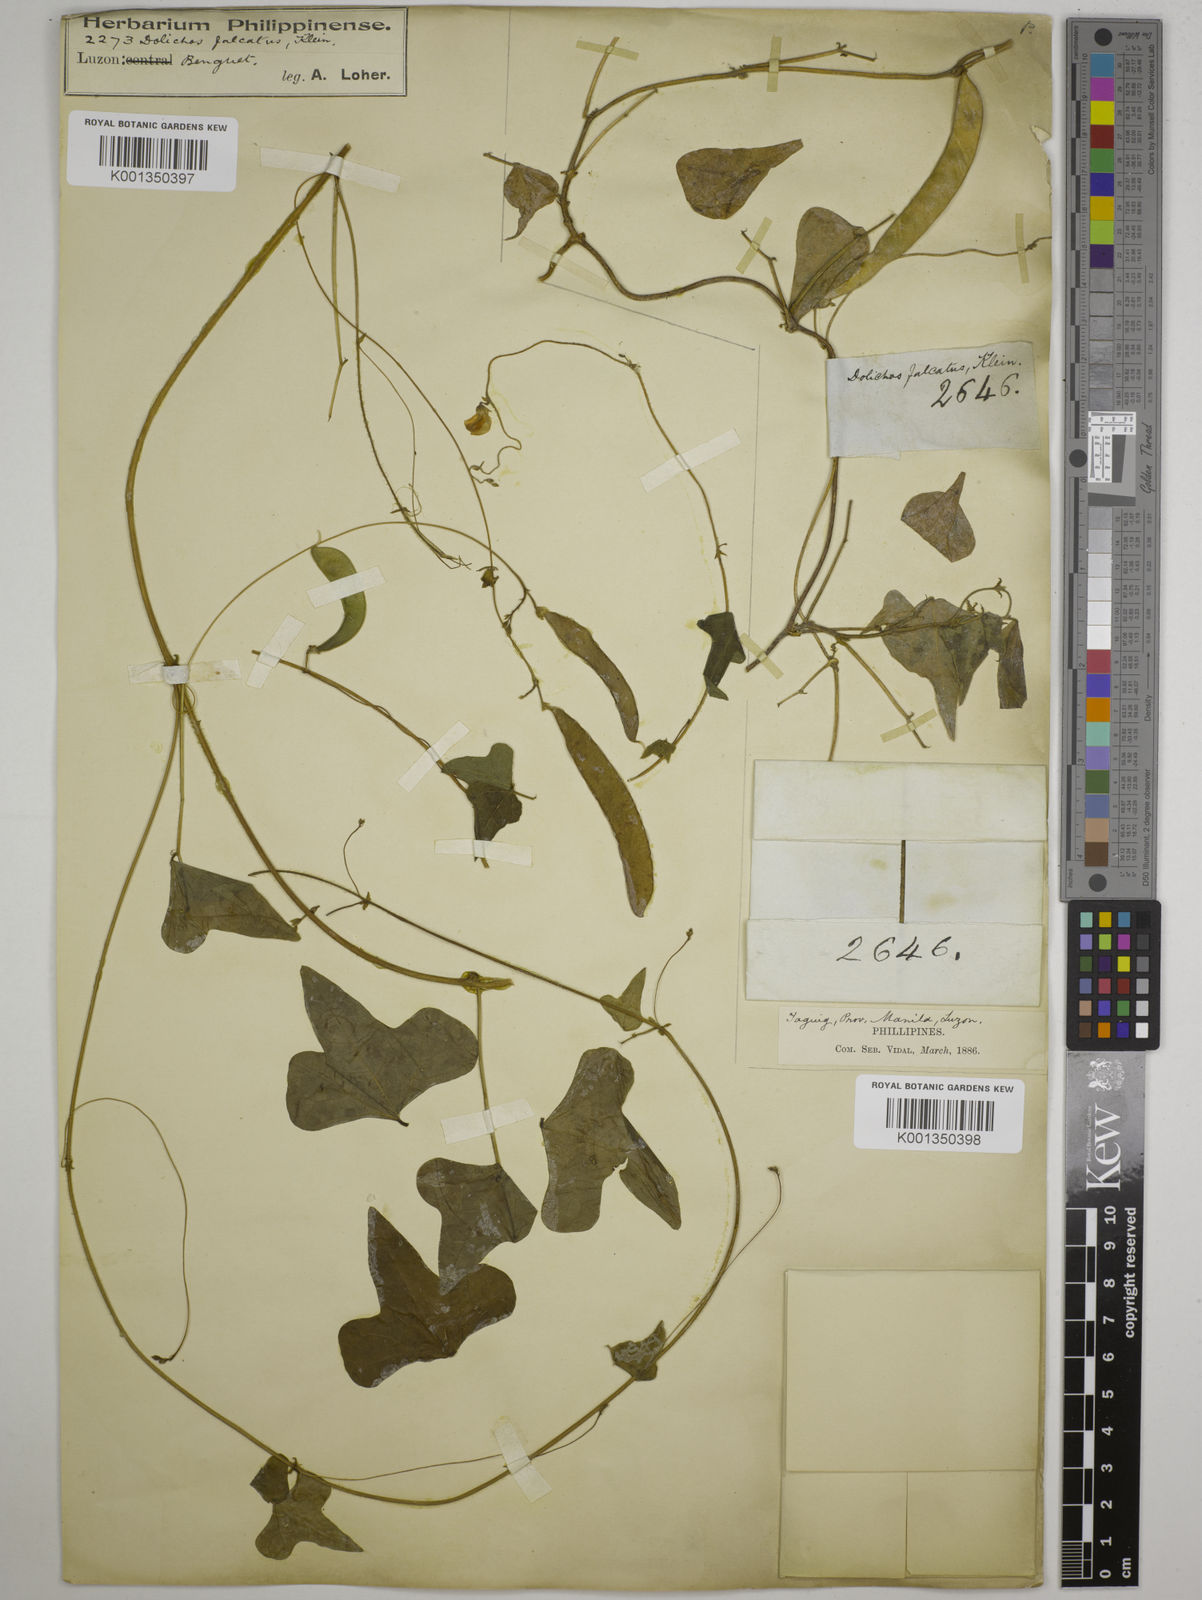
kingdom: Plantae
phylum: Tracheophyta
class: Magnoliopsida
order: Fabales
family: Fabaceae
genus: Dolichos
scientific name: Dolichos
